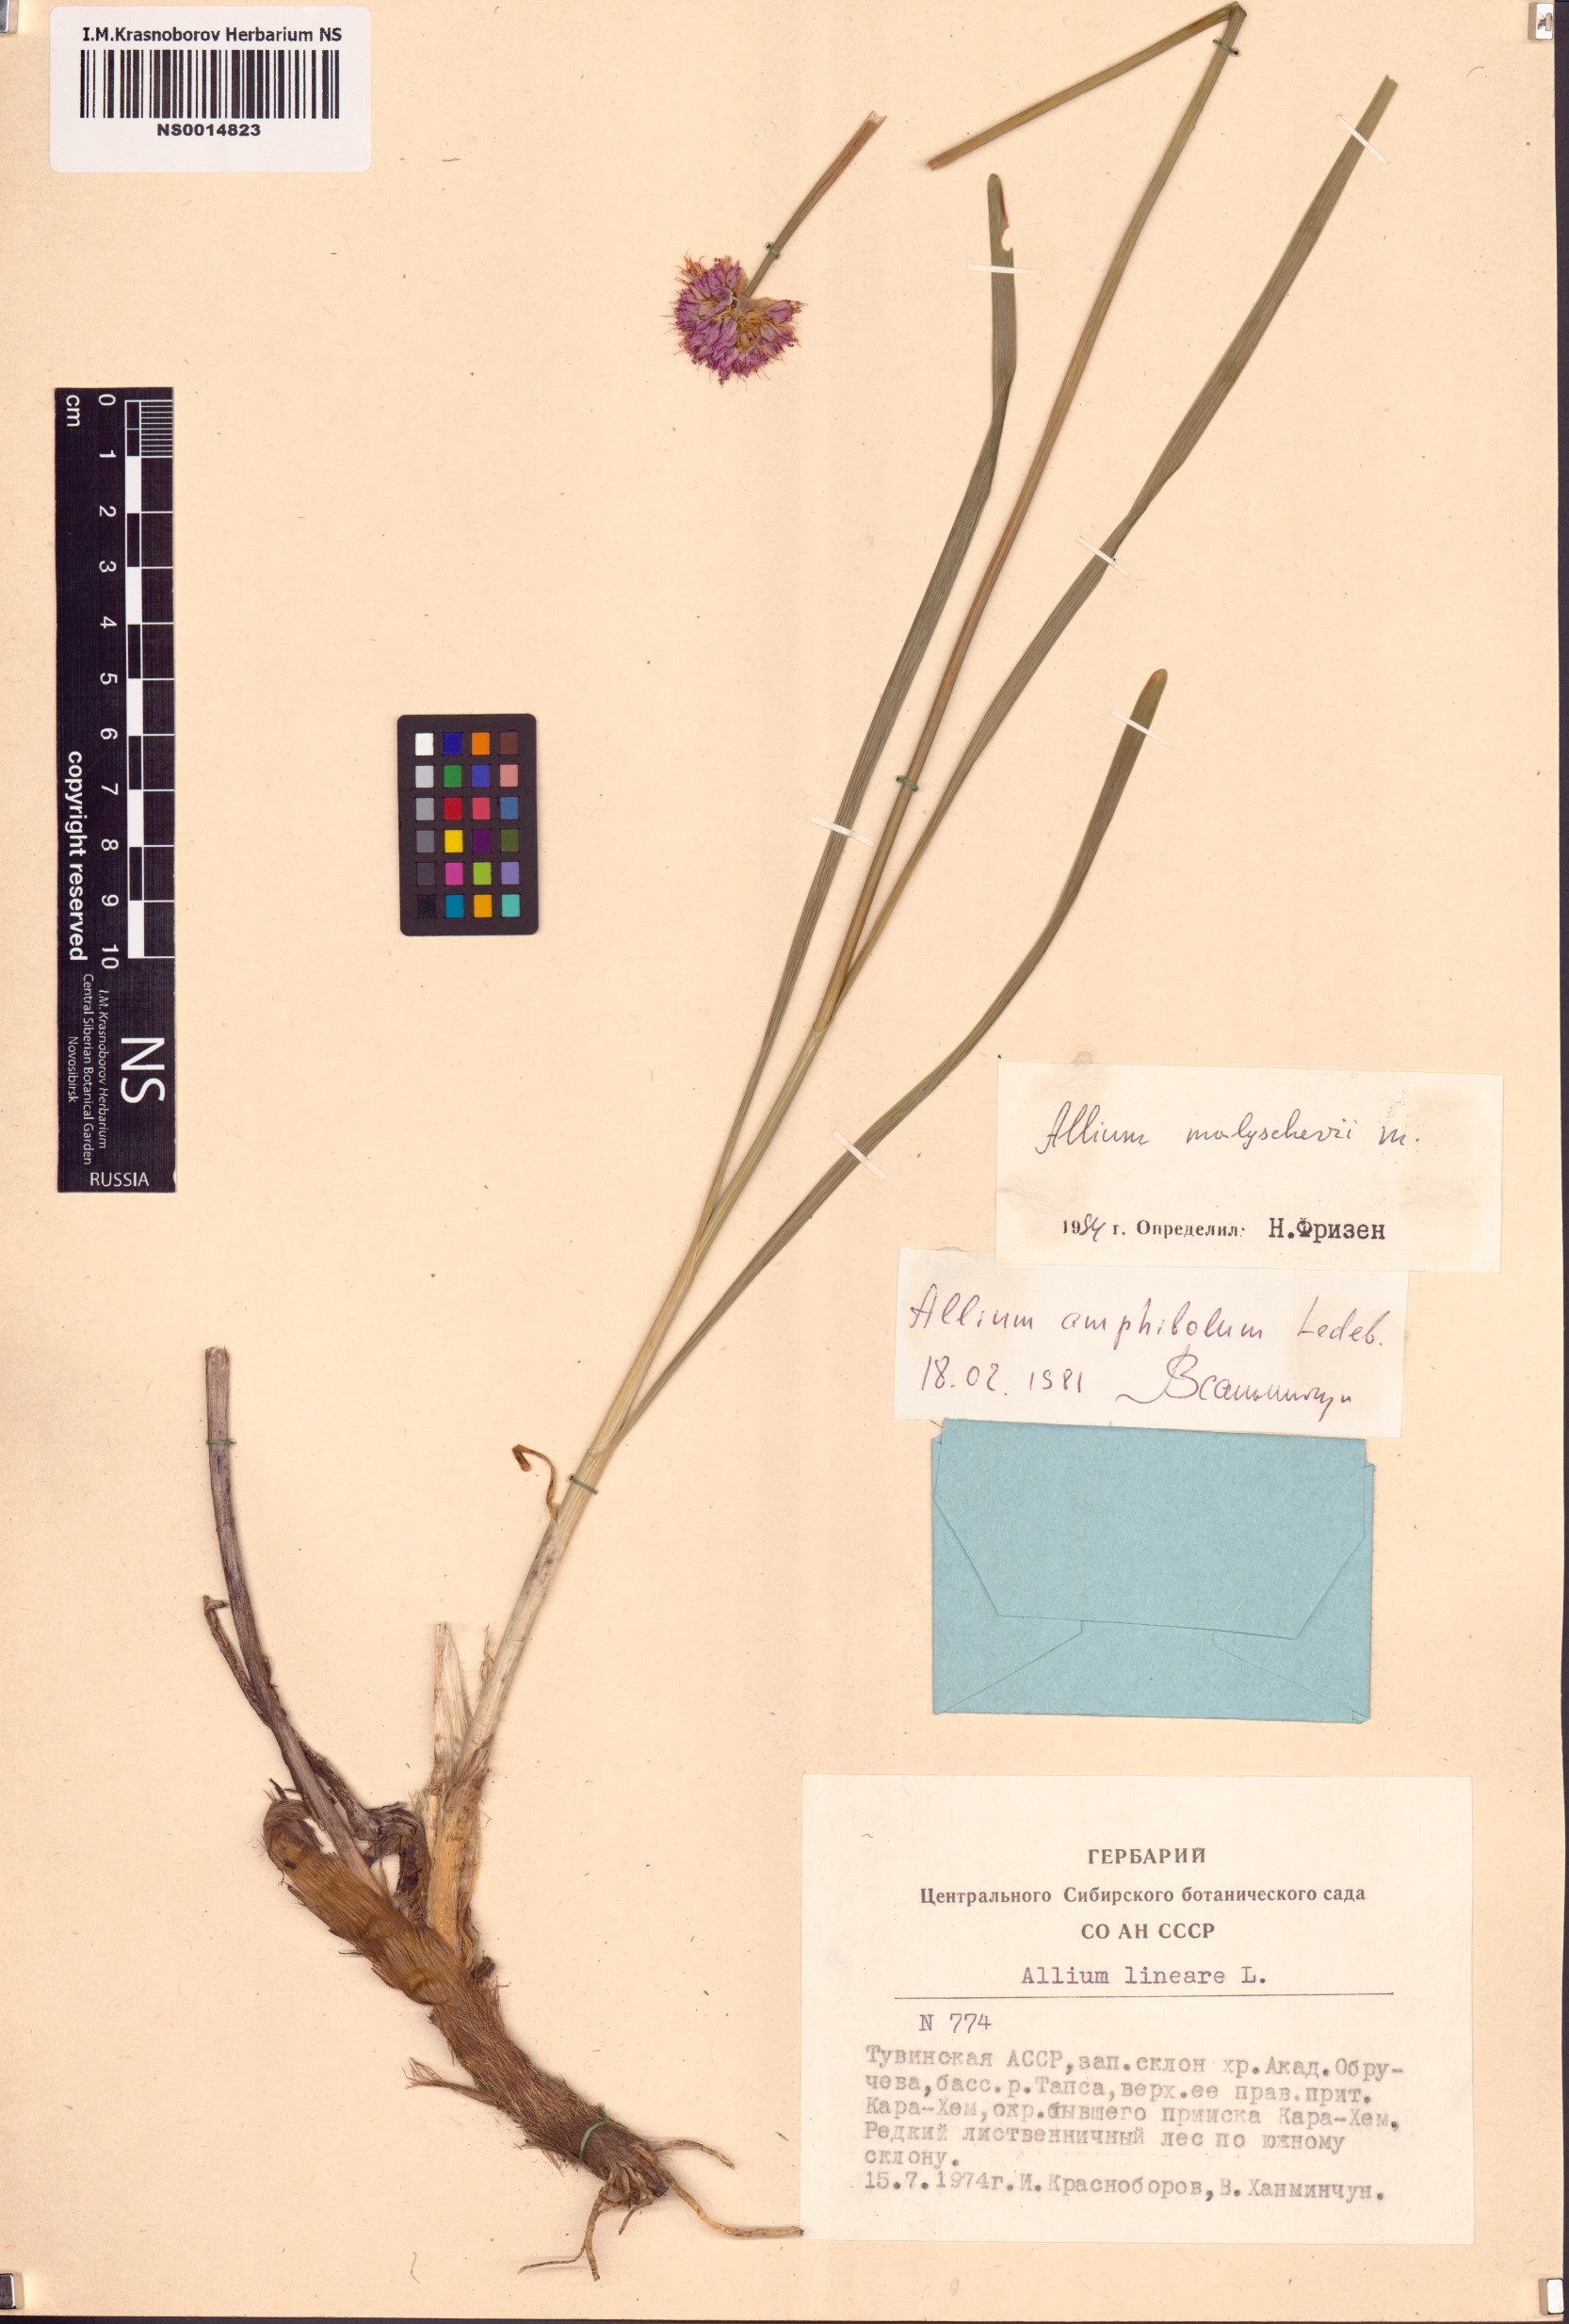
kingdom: Plantae
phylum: Tracheophyta
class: Liliopsida
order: Asparagales
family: Amaryllidaceae
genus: Allium
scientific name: Allium malyschevii
